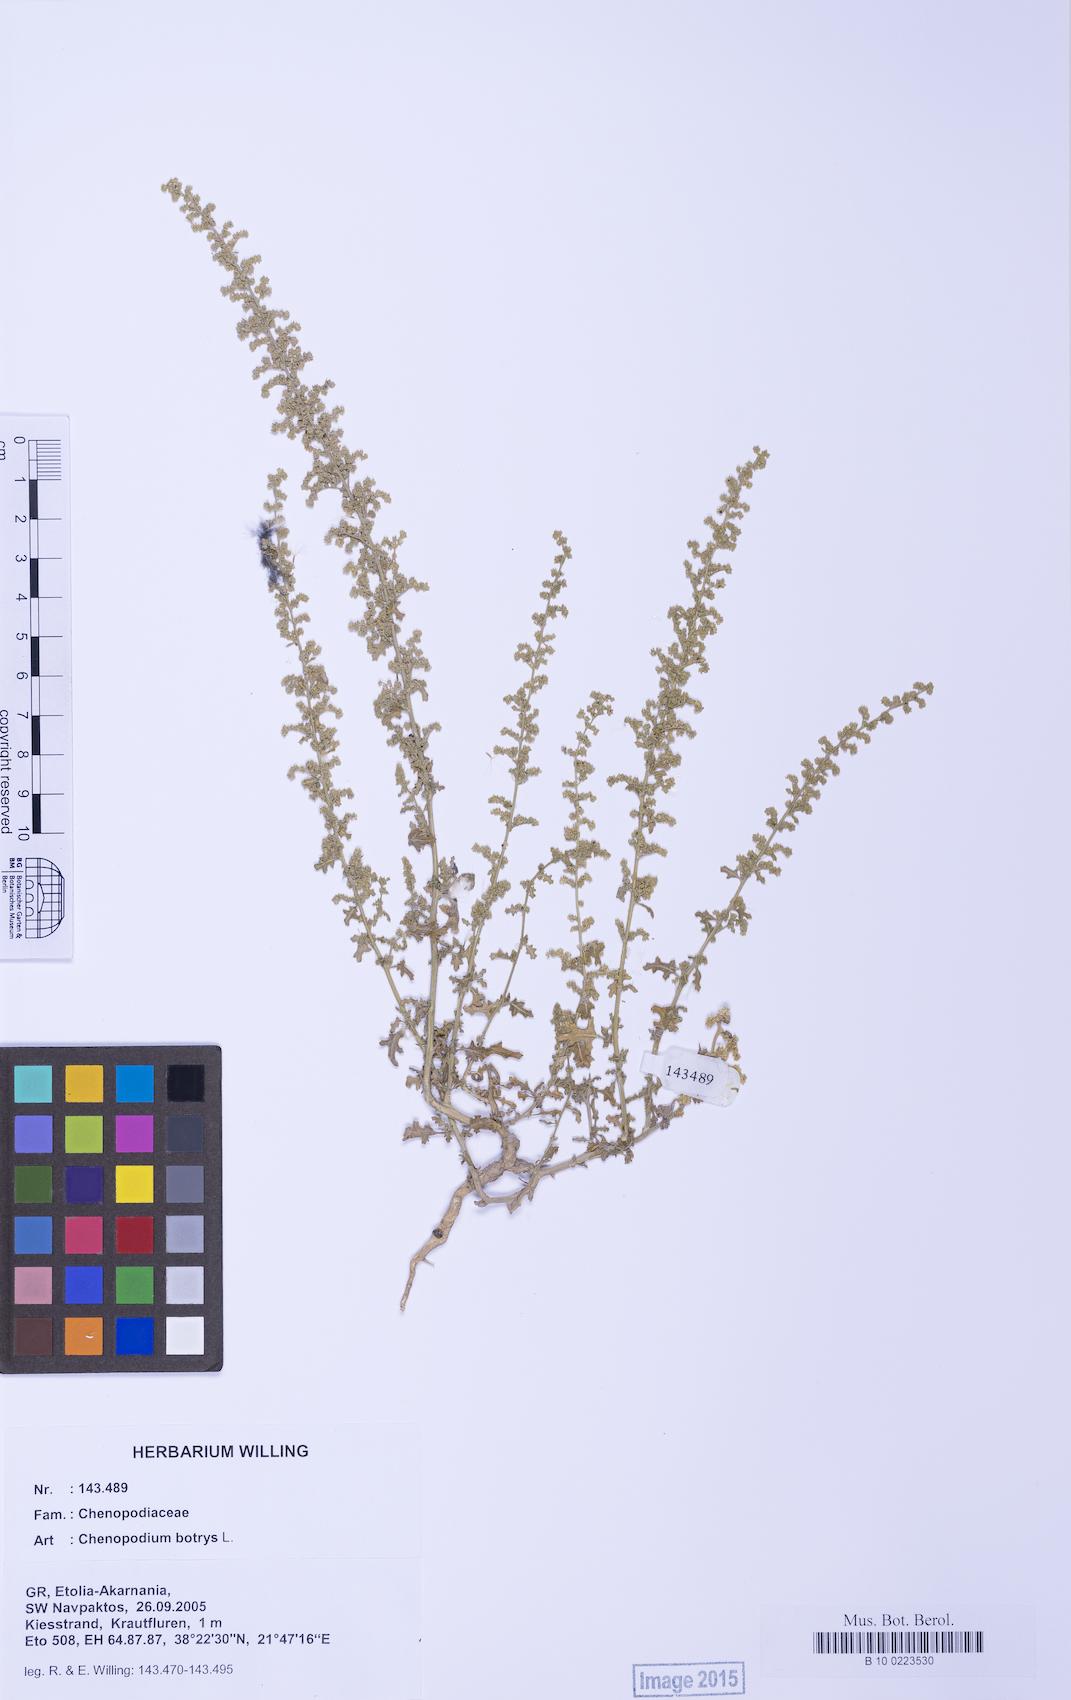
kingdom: Plantae
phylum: Tracheophyta
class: Magnoliopsida
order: Caryophyllales
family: Amaranthaceae
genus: Dysphania
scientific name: Dysphania botrys
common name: Feather-geranium
